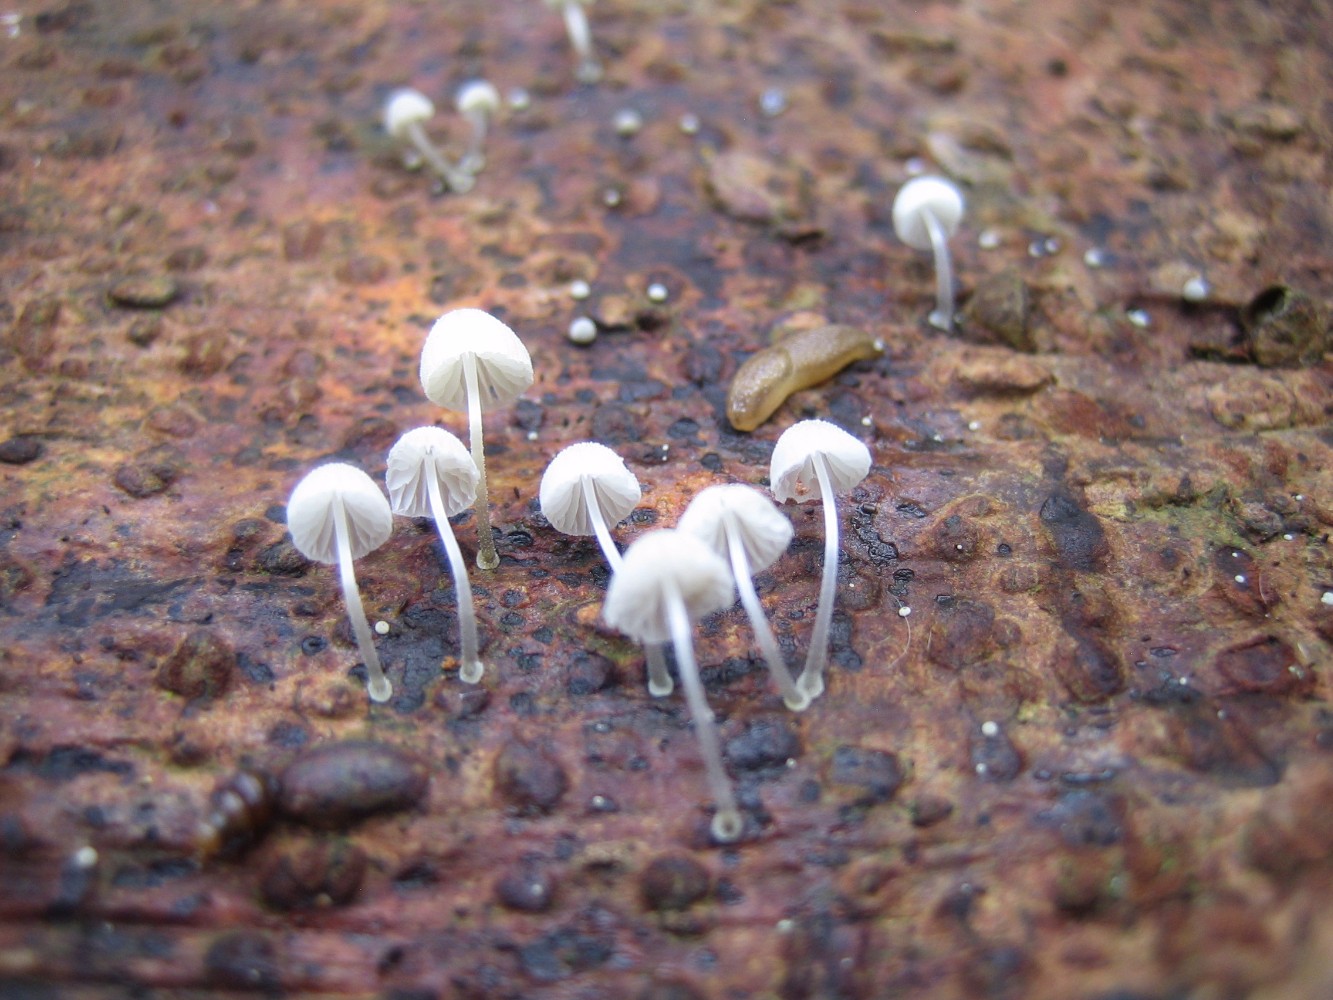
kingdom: Fungi
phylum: Basidiomycota
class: Agaricomycetes
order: Agaricales
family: Mycenaceae
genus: Mycena
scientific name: Mycena tenerrima
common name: pudret huesvamp
